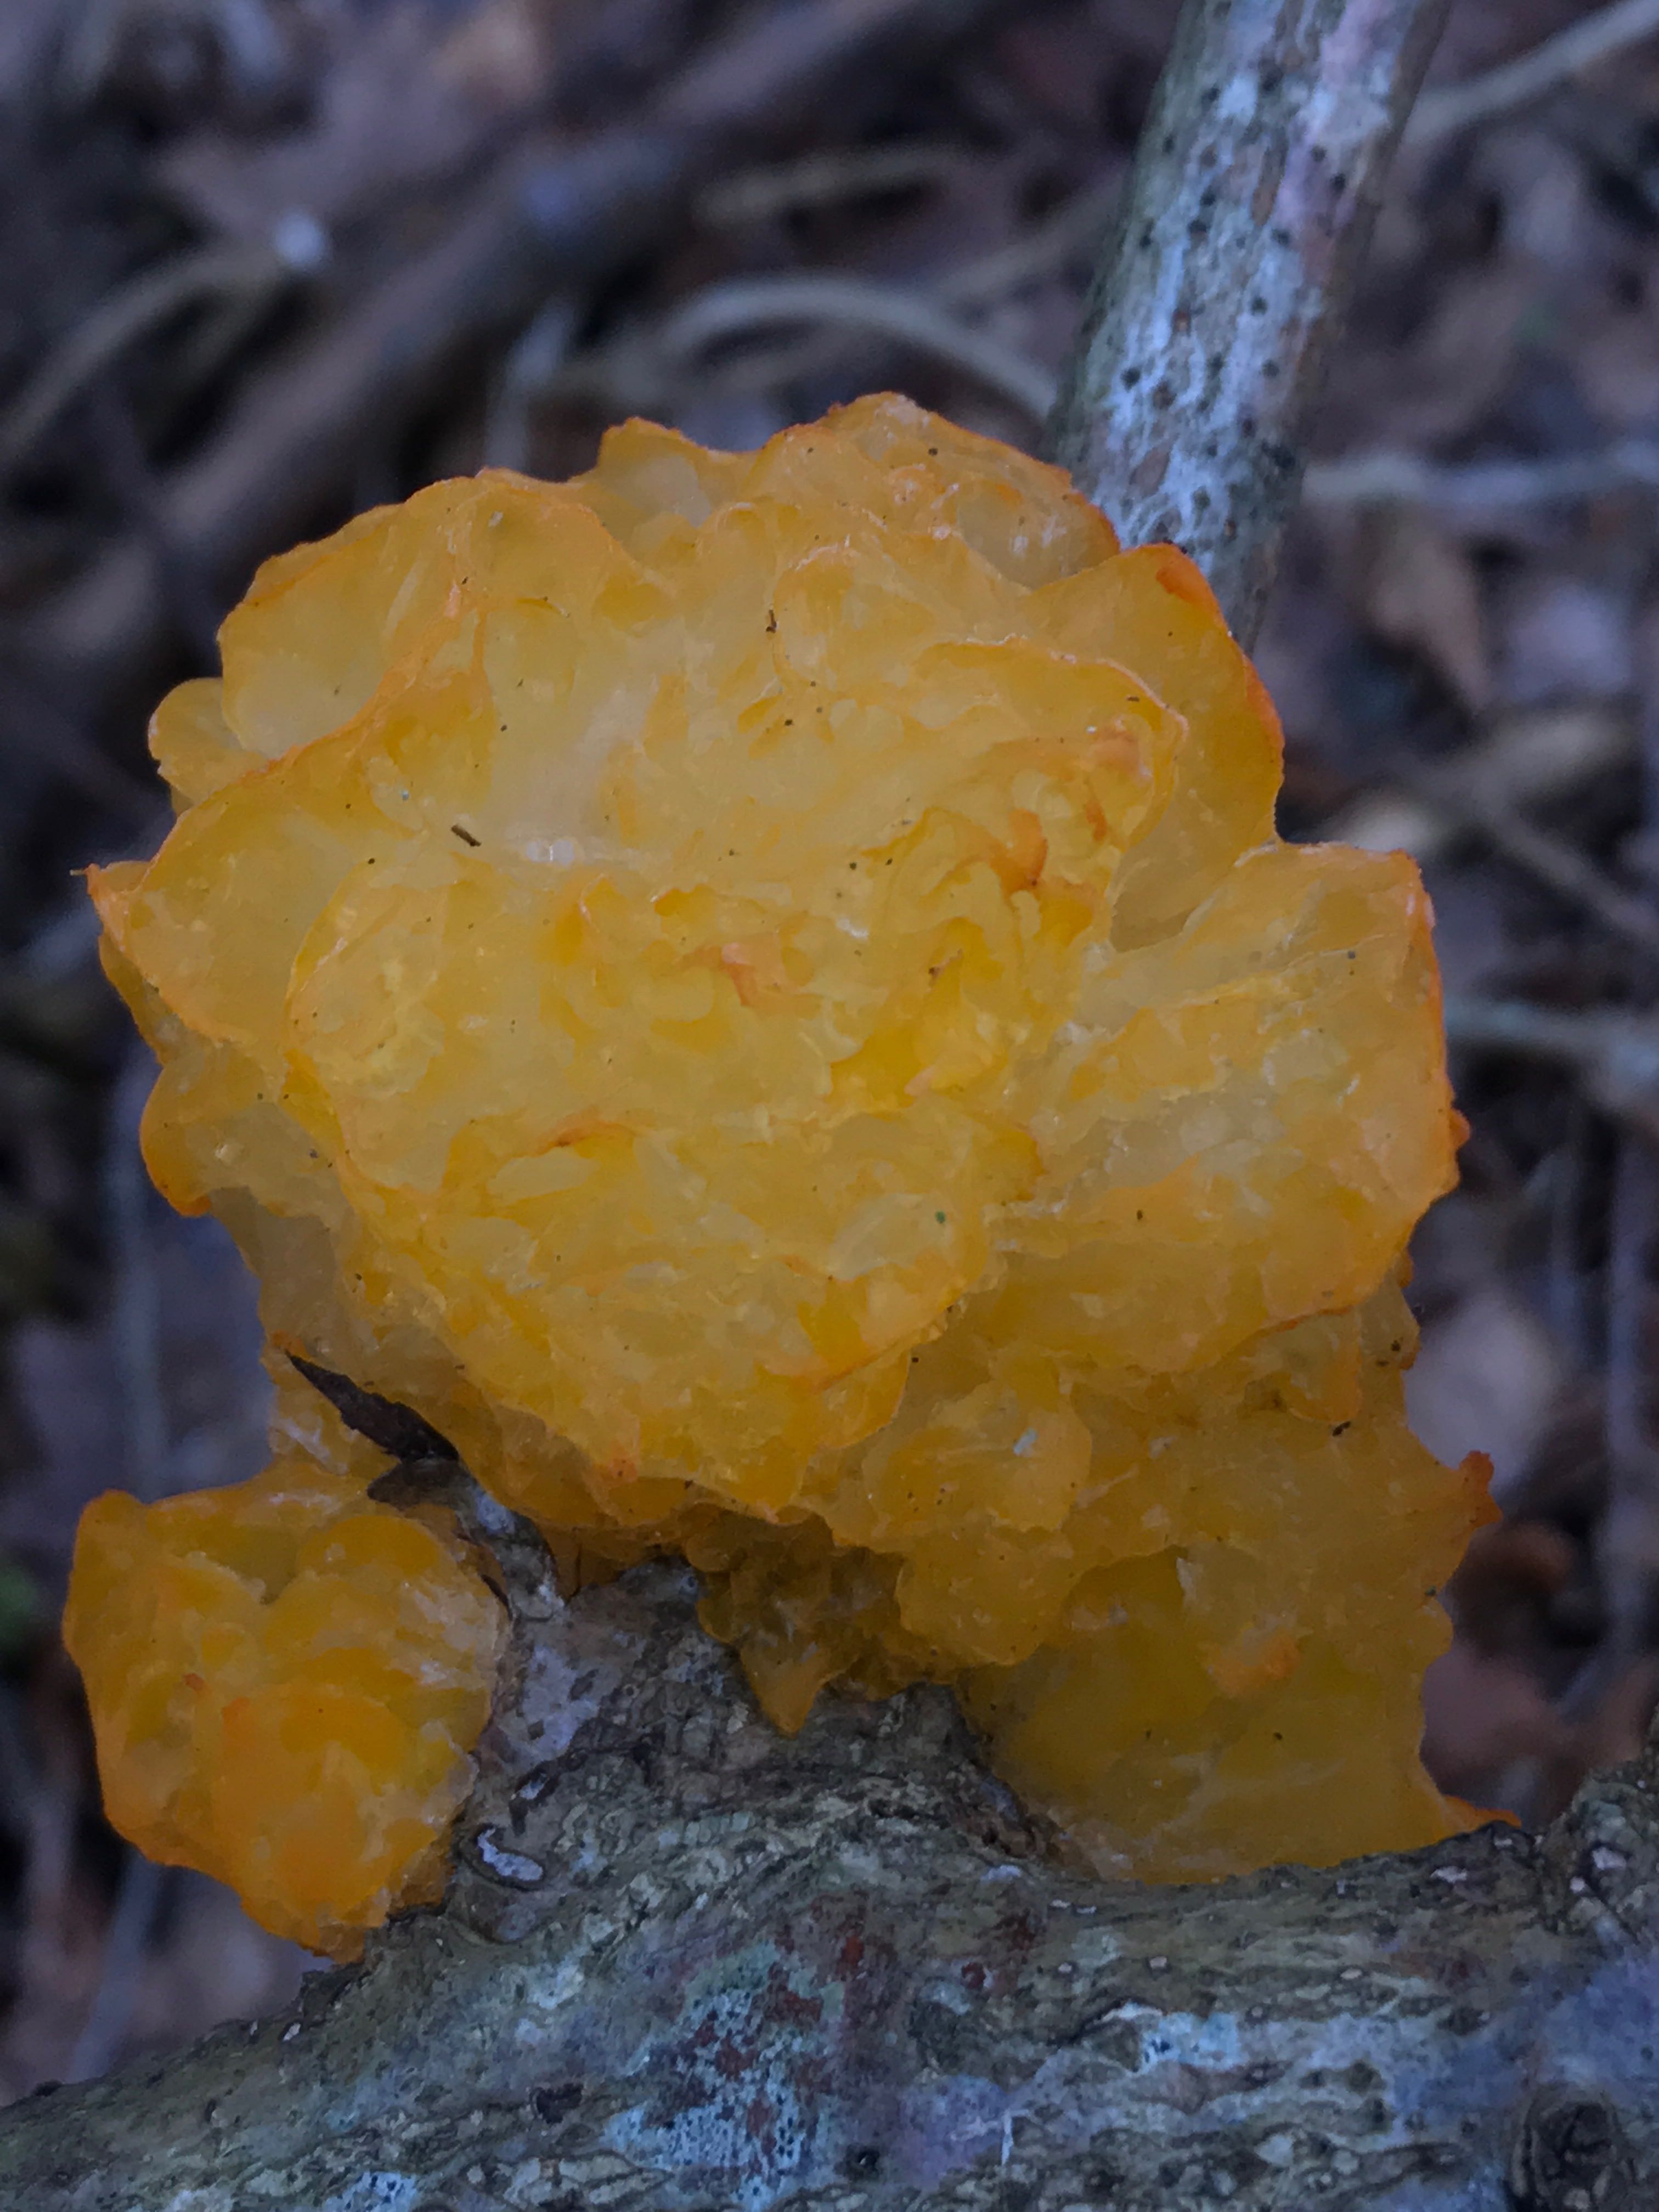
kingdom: Fungi
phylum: Basidiomycota
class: Tremellomycetes
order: Tremellales
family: Tremellaceae
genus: Tremella
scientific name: Tremella mesenterica
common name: gul bævresvamp
